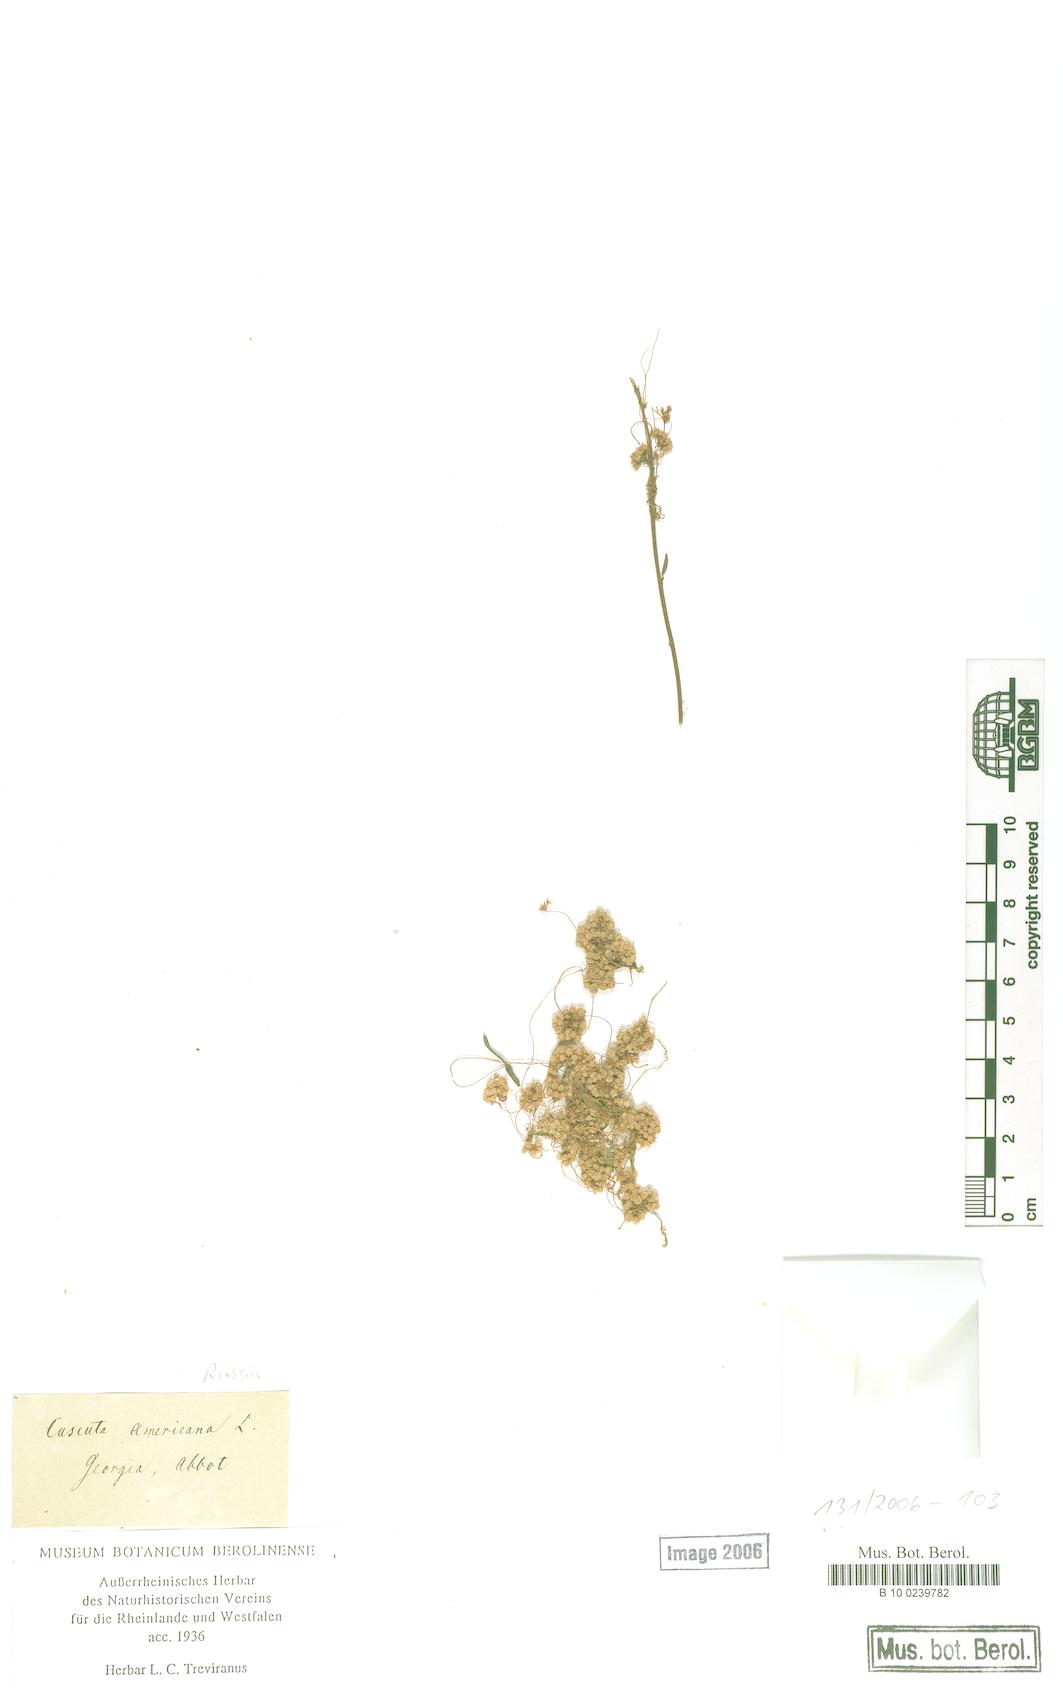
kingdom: Plantae
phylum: Tracheophyta
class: Magnoliopsida
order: Solanales
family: Convolvulaceae
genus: Cuscuta
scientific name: Cuscuta americana
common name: American dodder
